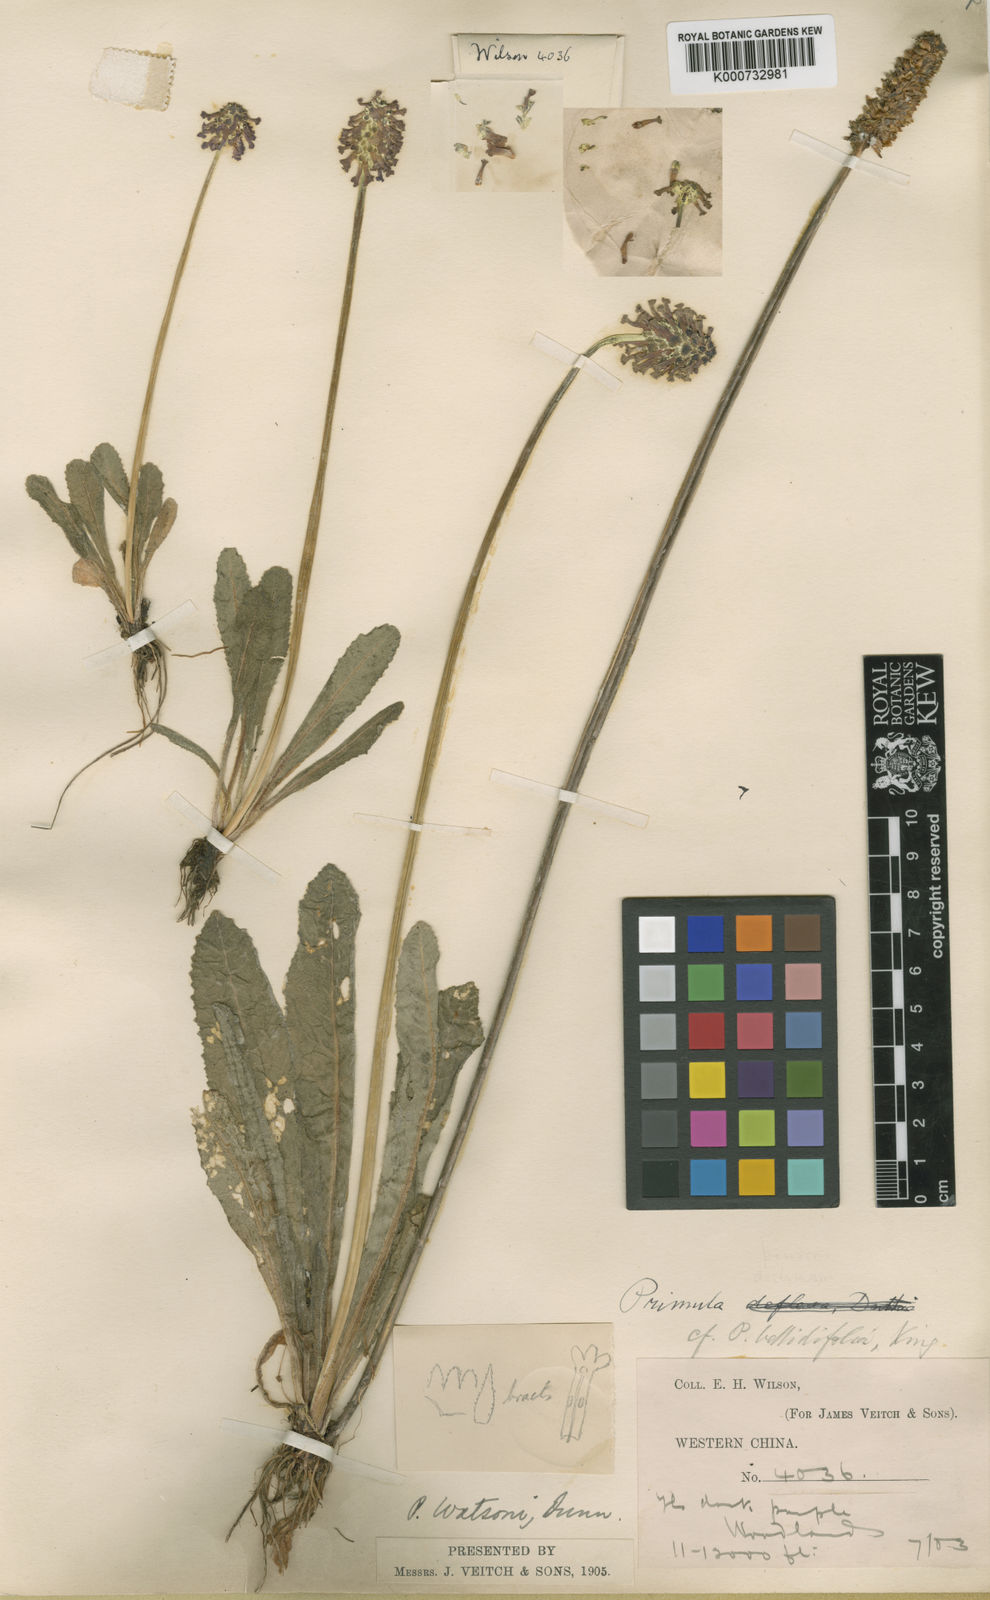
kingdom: Plantae
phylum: Tracheophyta
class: Magnoliopsida
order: Ericales
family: Primulaceae
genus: Primula
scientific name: Primula watsonii
